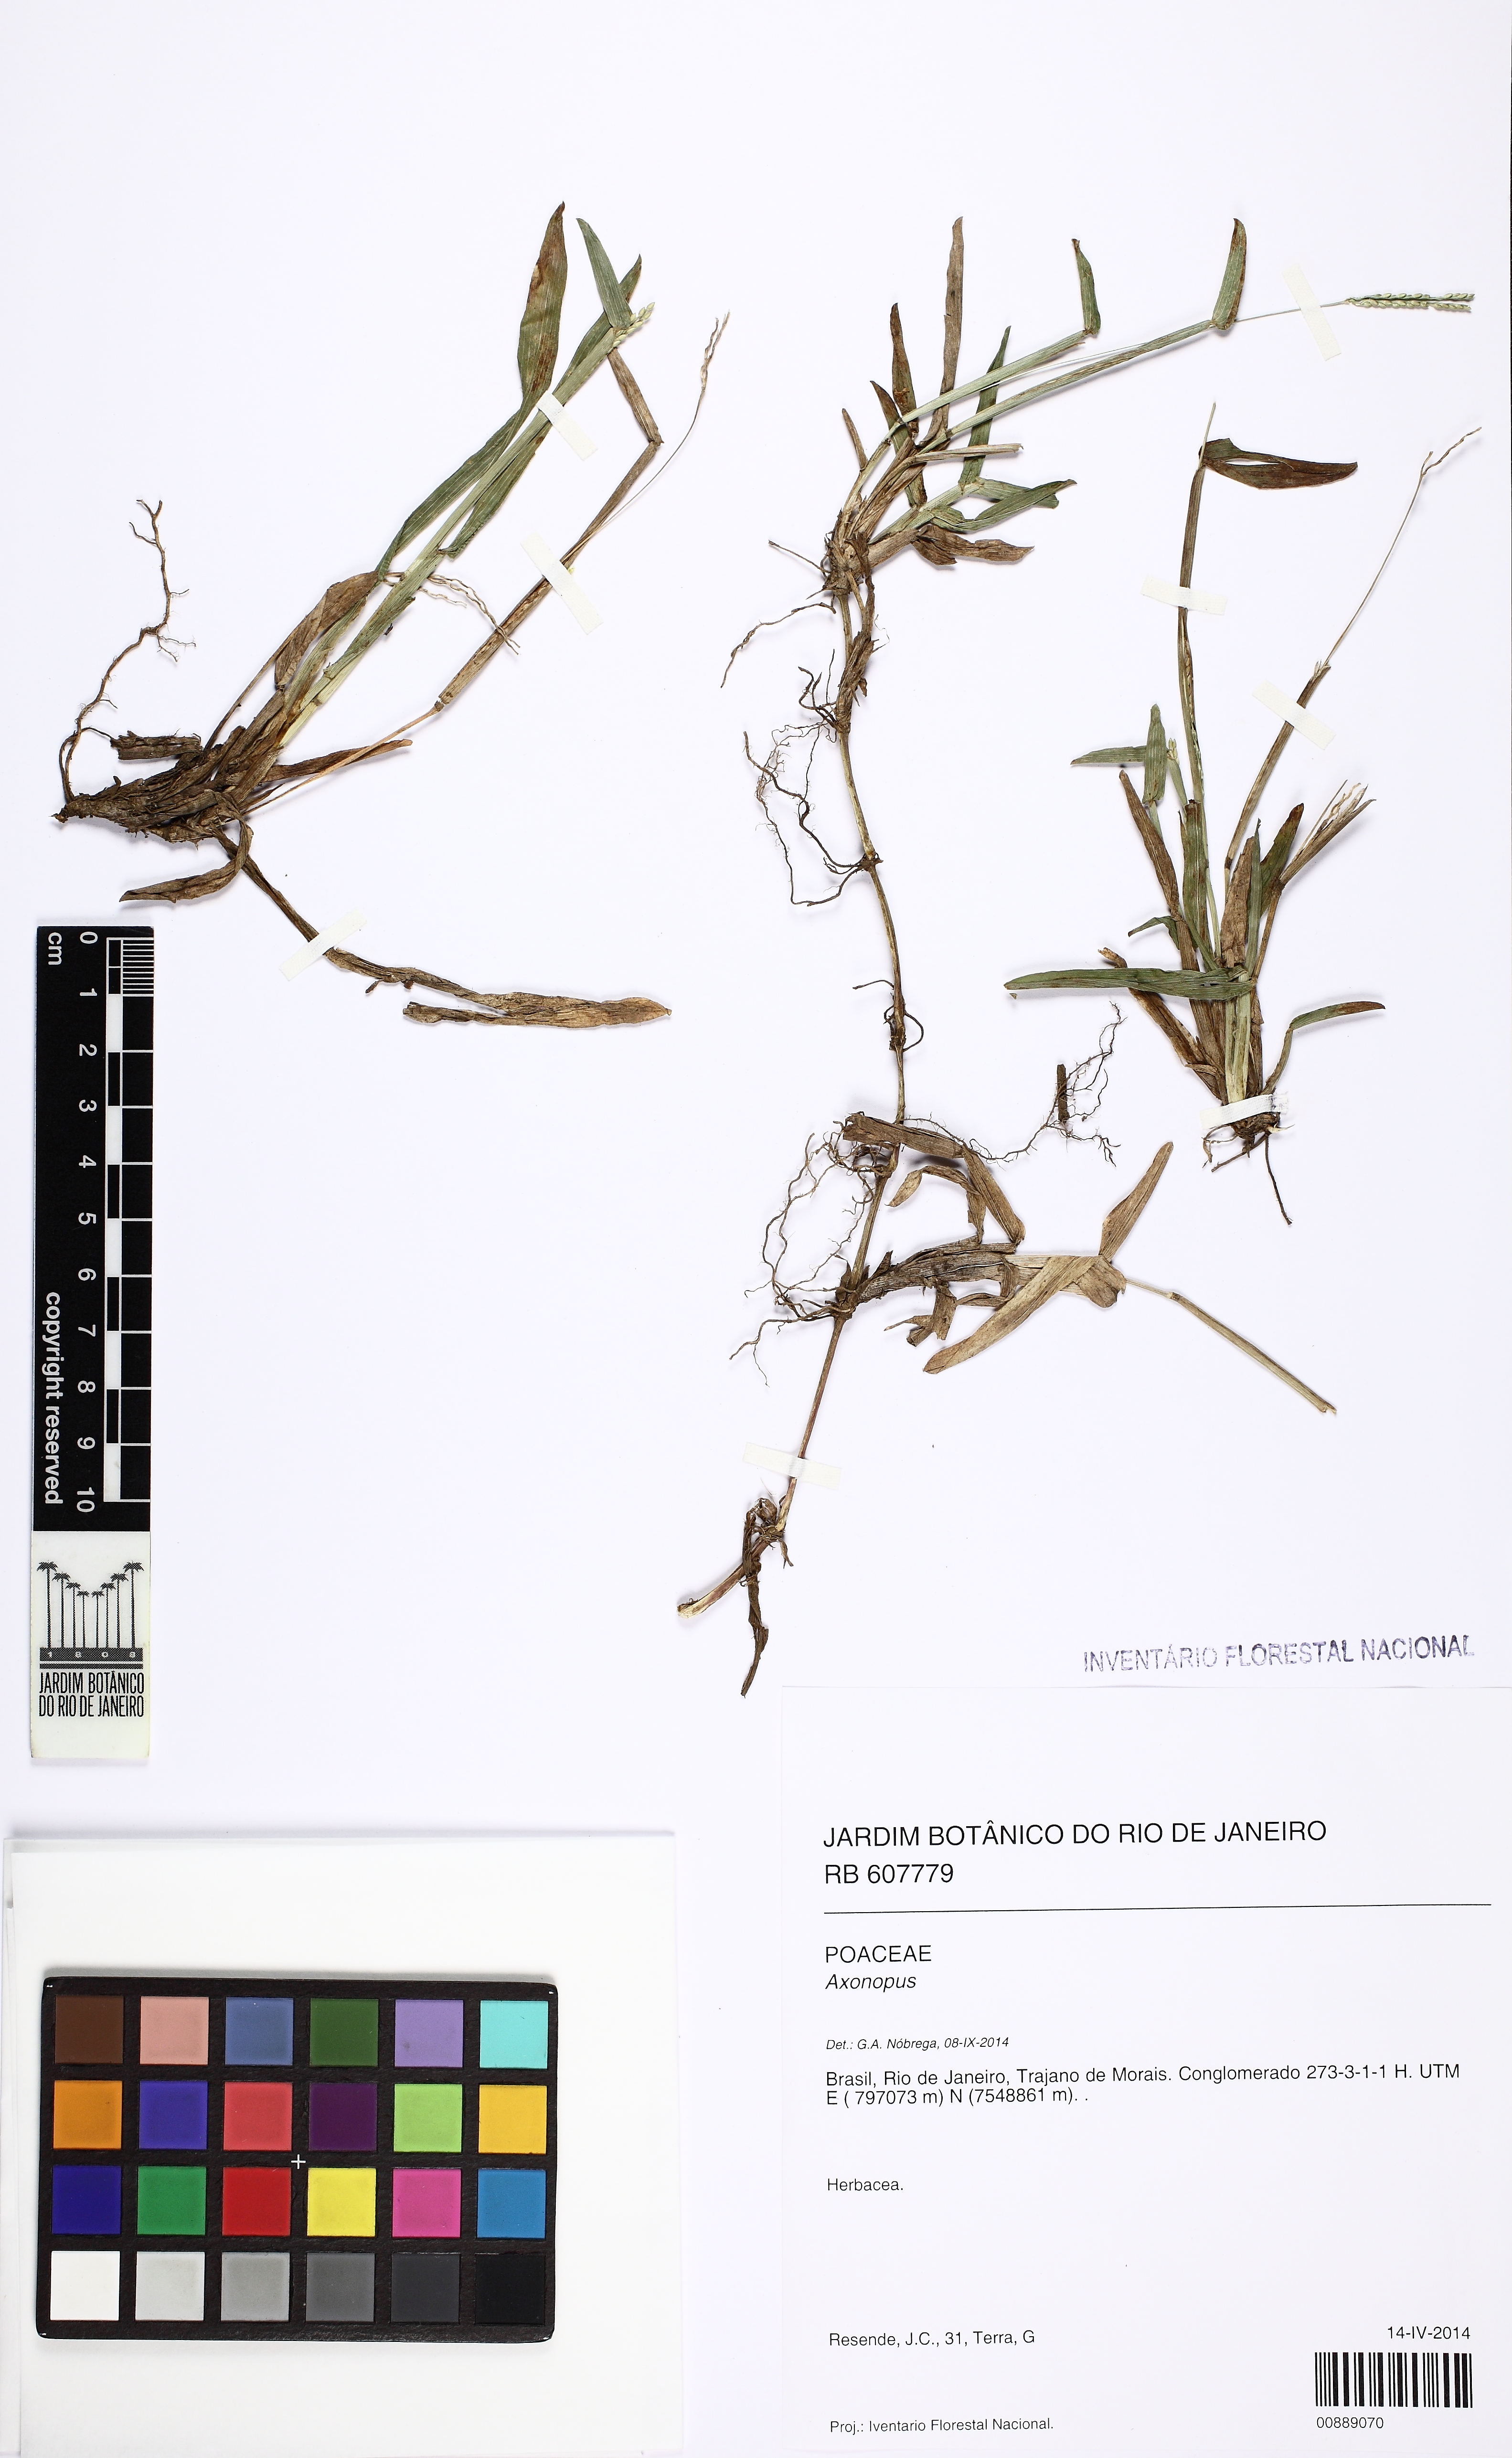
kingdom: Plantae
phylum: Tracheophyta
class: Liliopsida
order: Poales
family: Poaceae
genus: Axonopus
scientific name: Axonopus compressus
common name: American carpet grass
